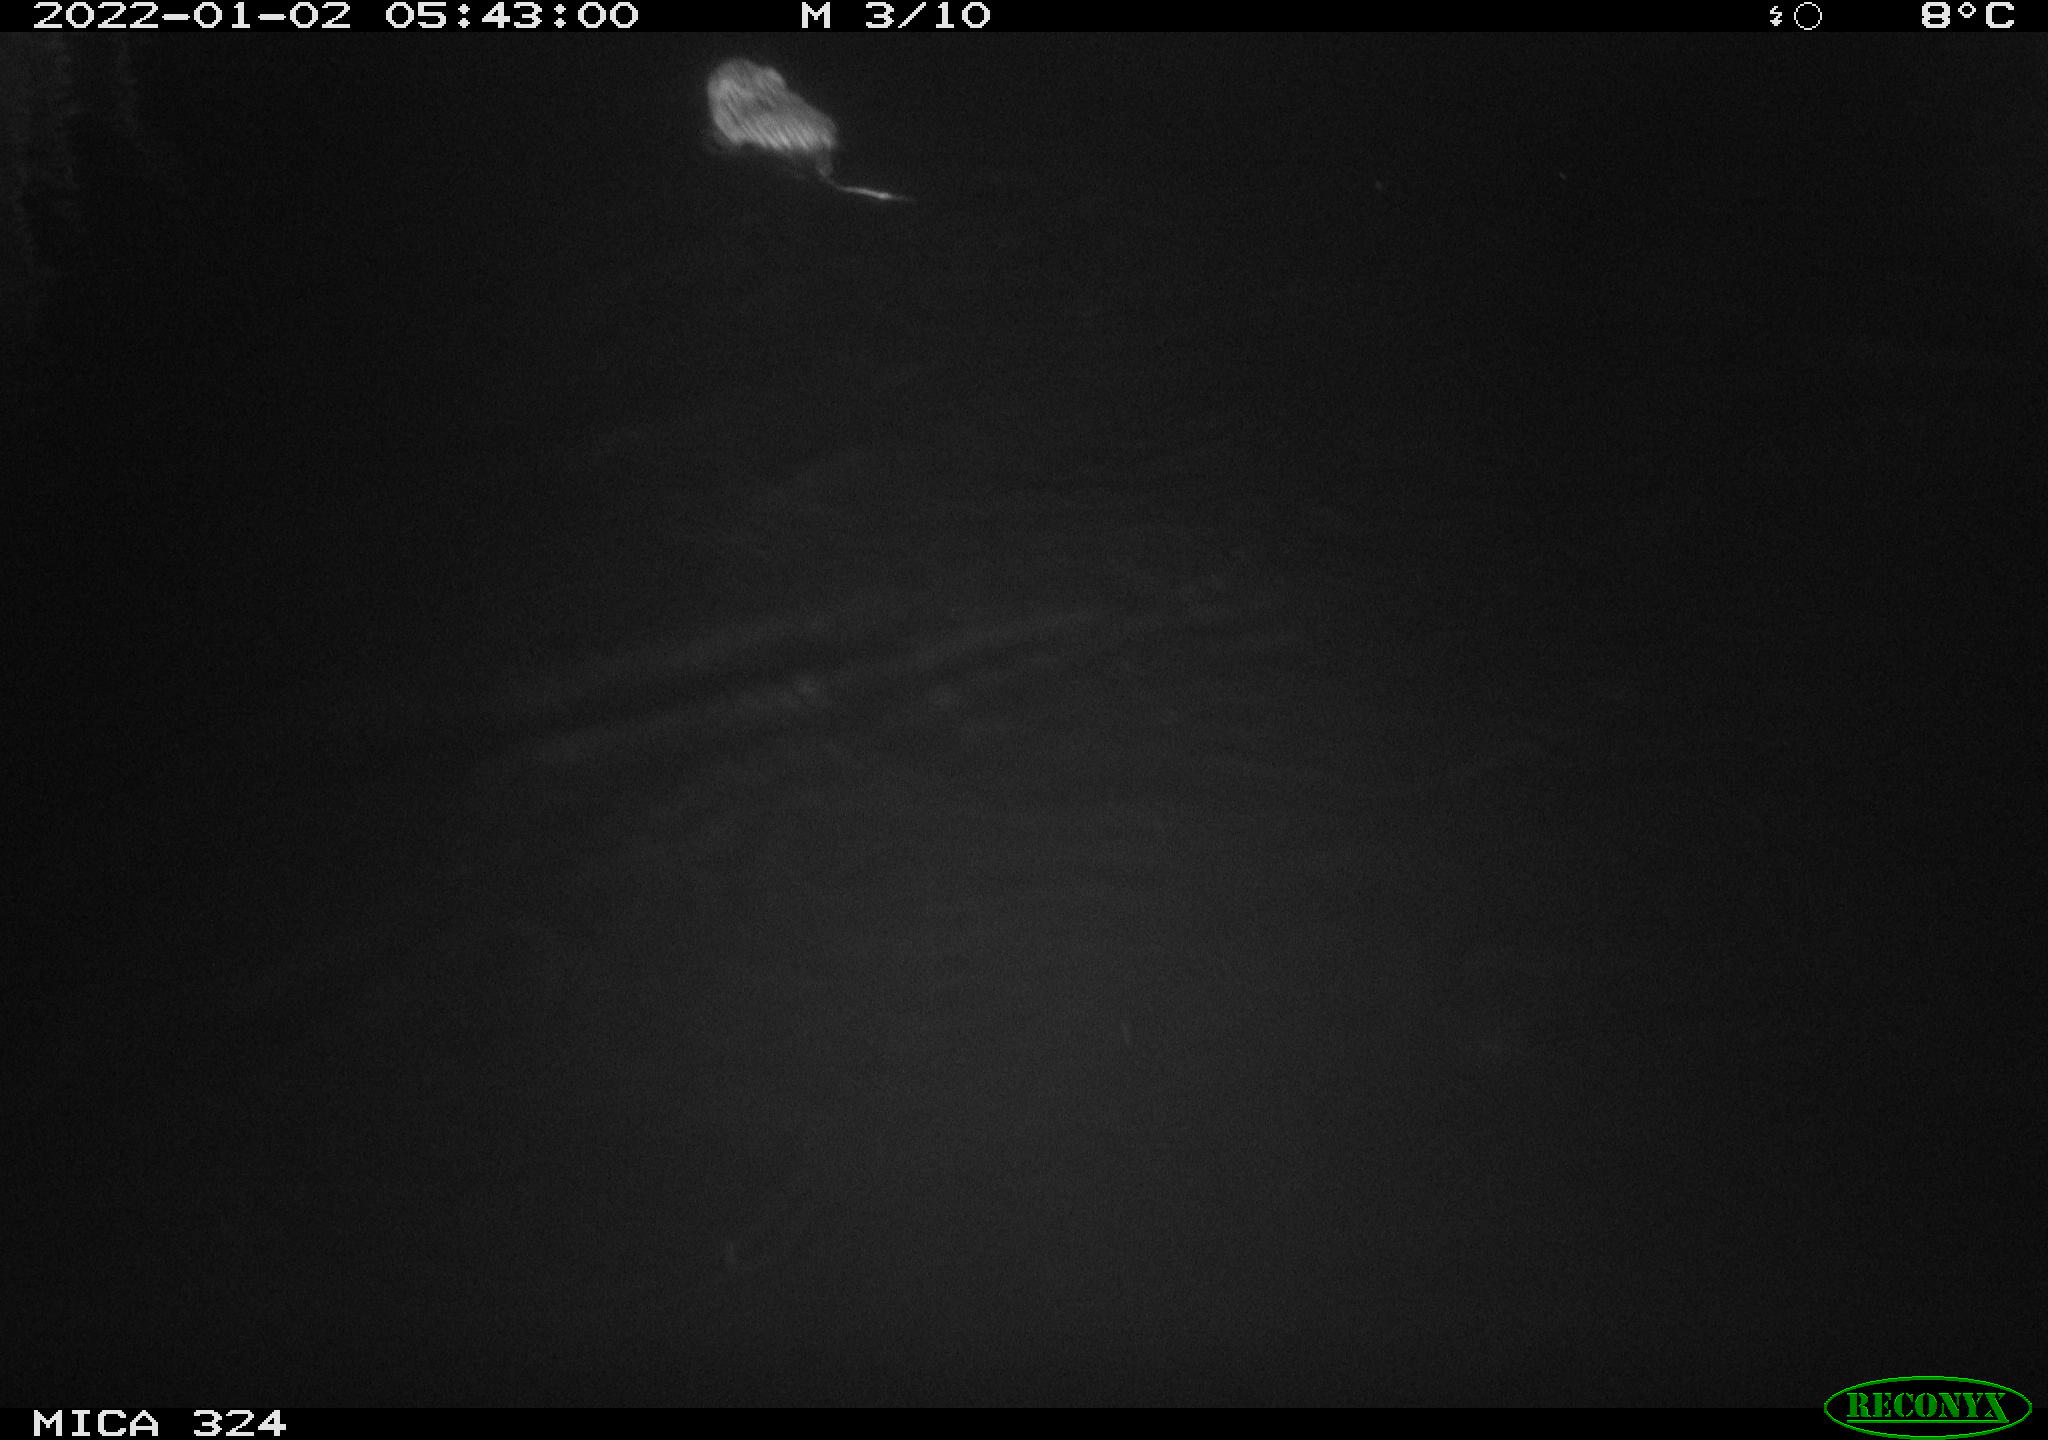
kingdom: Animalia
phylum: Chordata
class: Mammalia
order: Rodentia
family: Cricetidae
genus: Ondatra
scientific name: Ondatra zibethicus
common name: Muskrat
